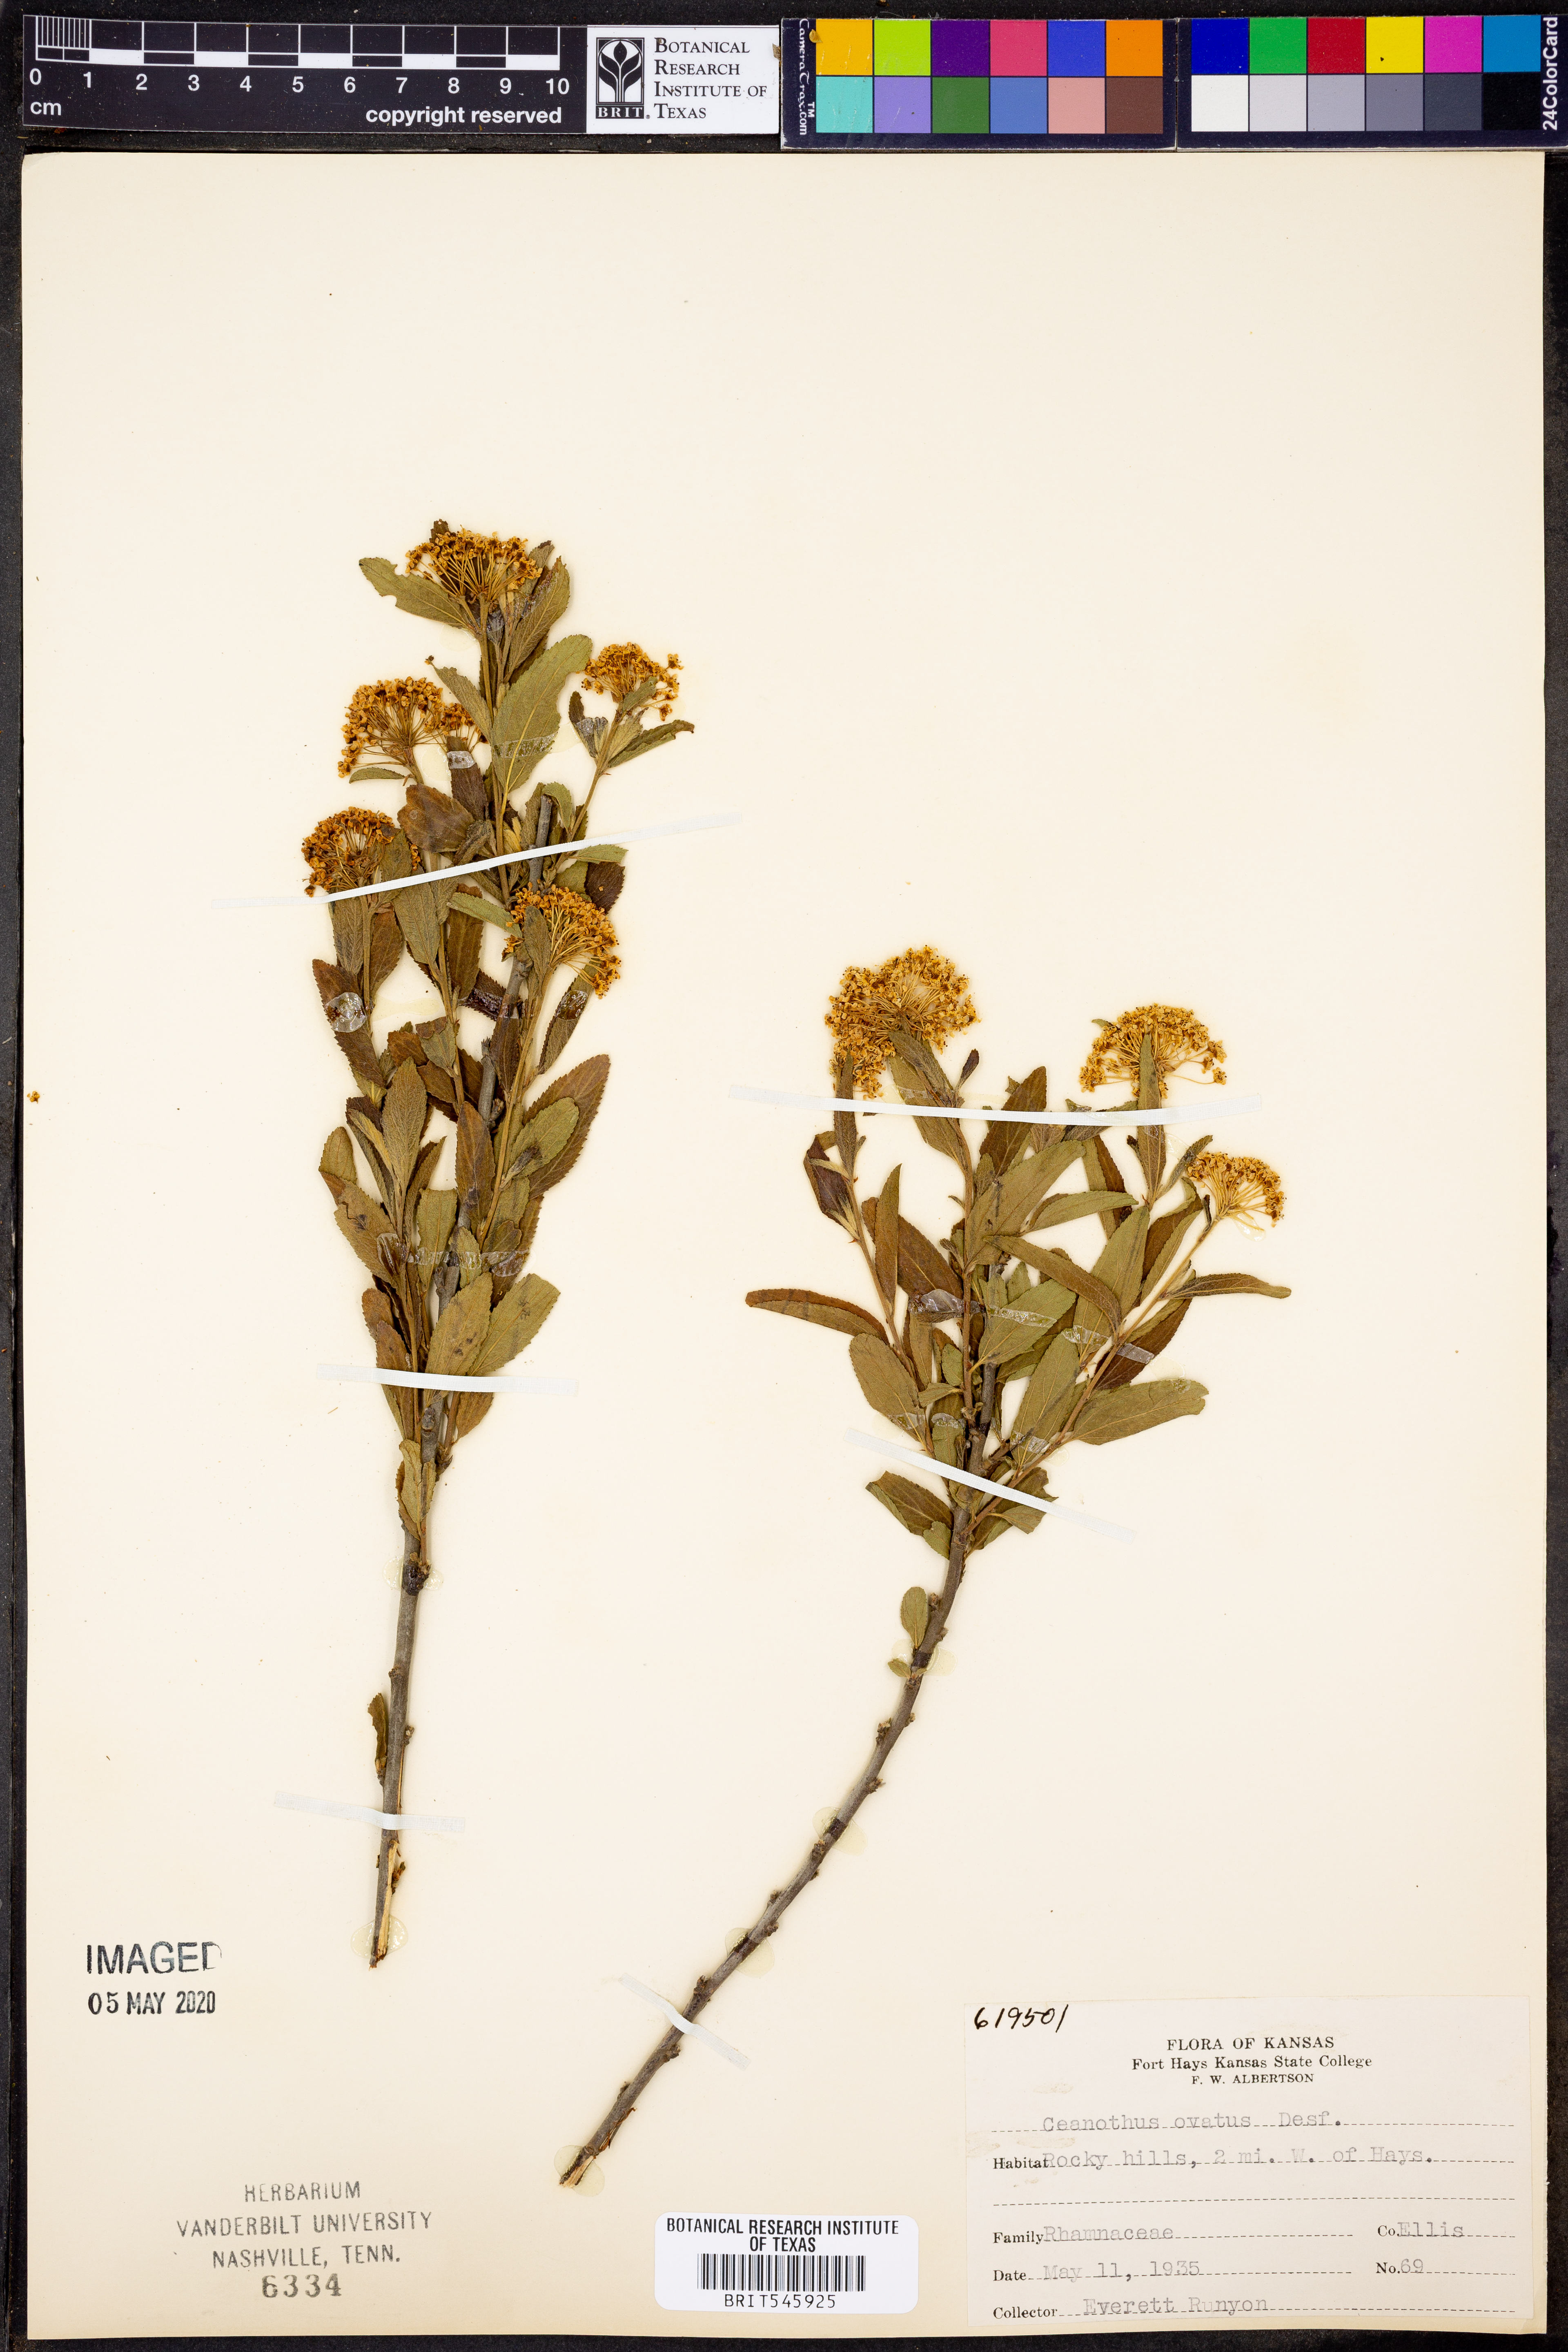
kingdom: Plantae
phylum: Tracheophyta
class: Magnoliopsida
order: Rosales
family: Rhamnaceae
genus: Ceanothus
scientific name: Ceanothus herbaceus
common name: Inland ceanothus
